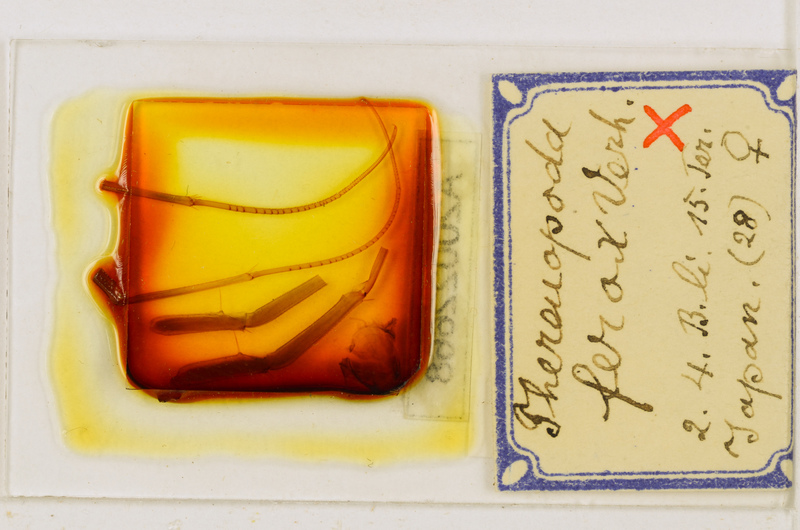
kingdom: Animalia
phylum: Arthropoda
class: Chilopoda
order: Scutigeromorpha
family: Scutigeridae
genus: Thereuopoda
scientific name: Thereuopoda clunifera
